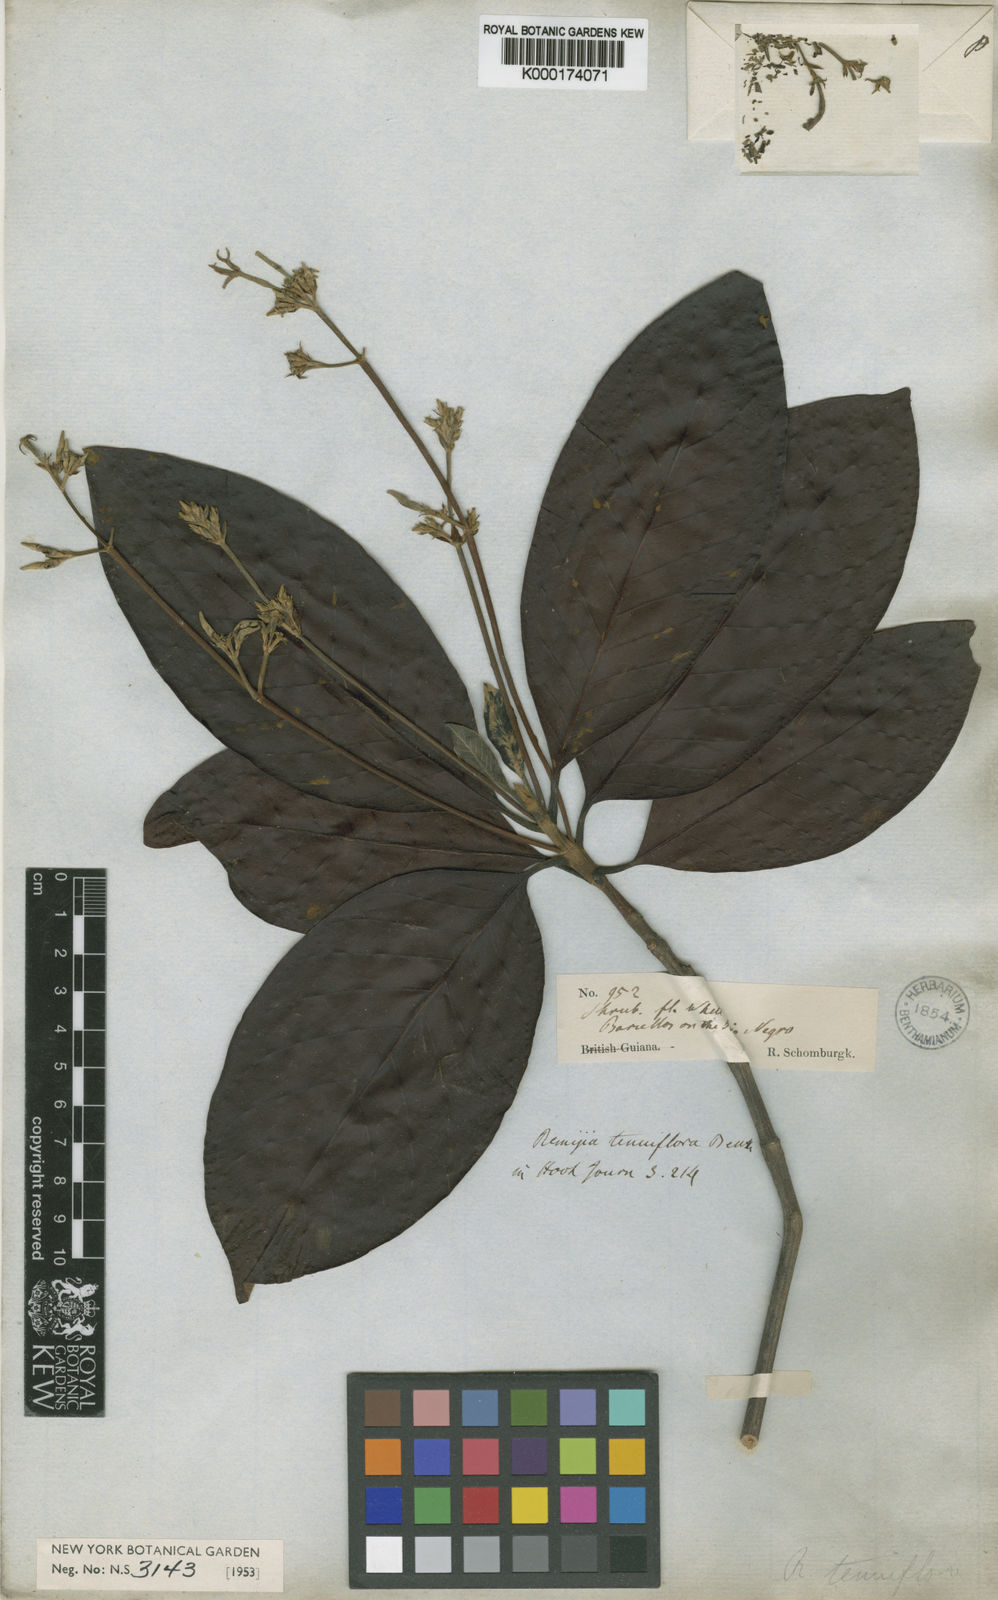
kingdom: Plantae
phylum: Tracheophyta
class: Magnoliopsida
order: Gentianales
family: Rubiaceae
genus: Remijia
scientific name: Remijia tenuiflora
